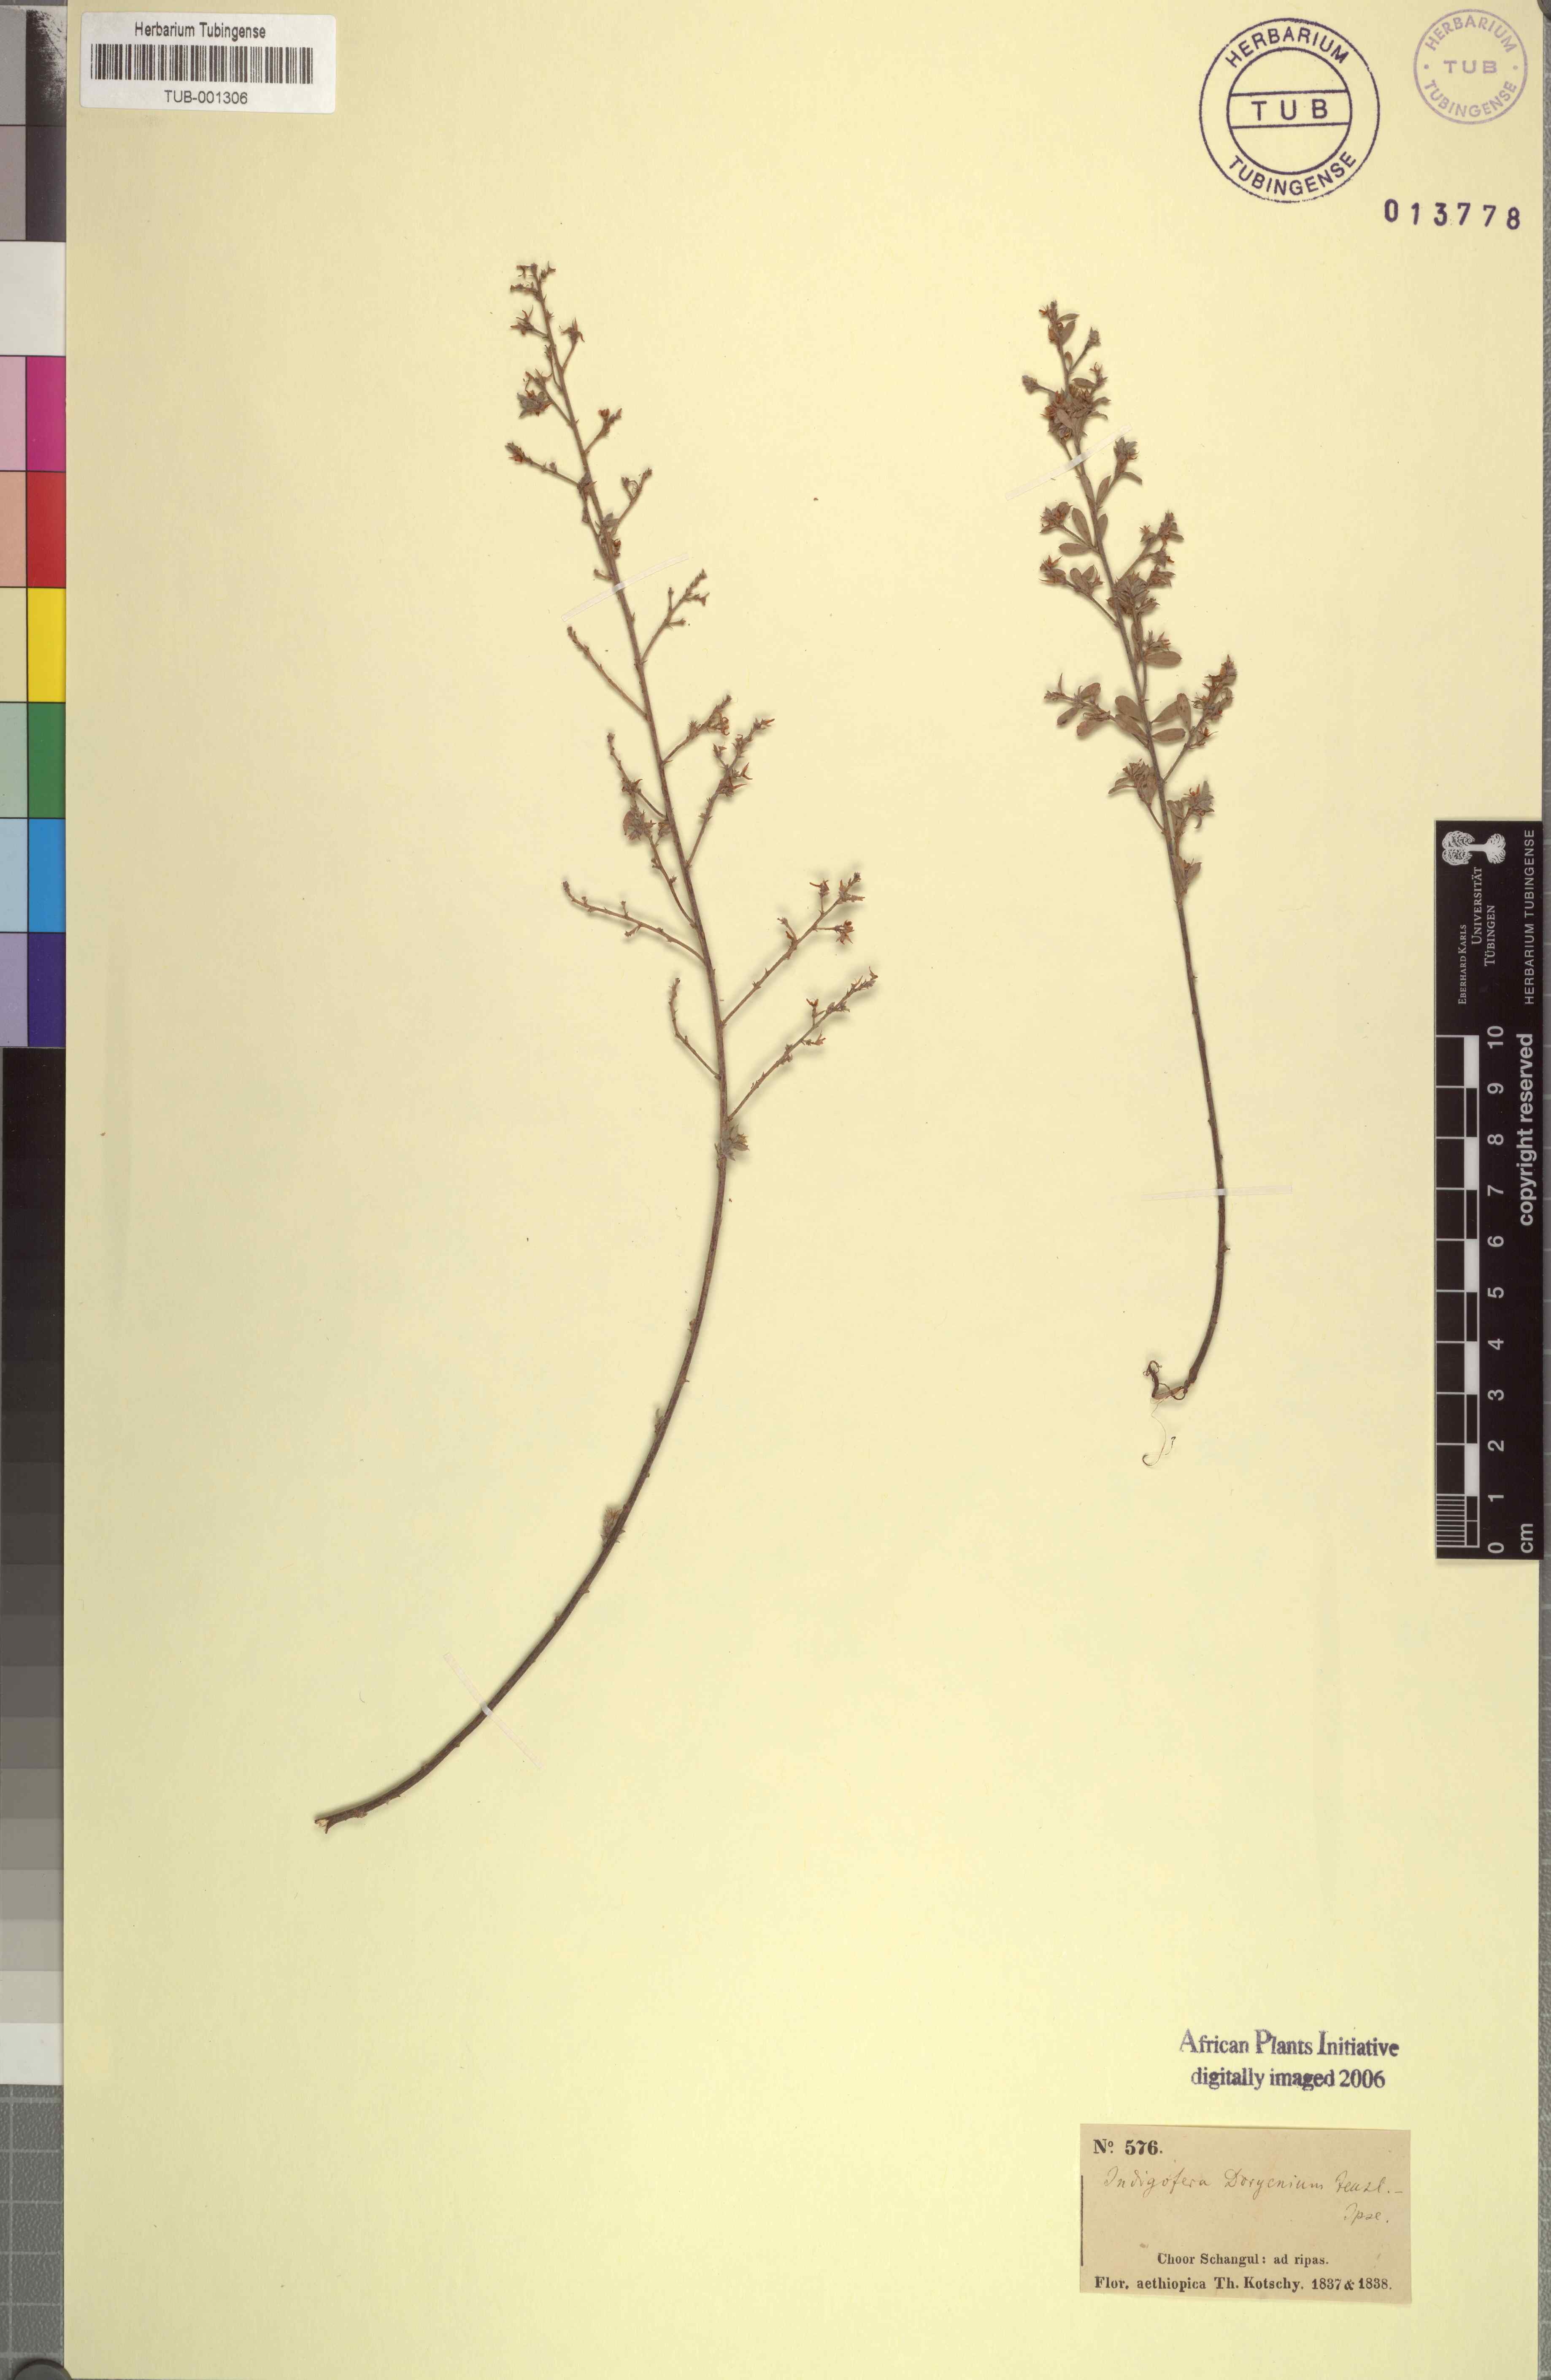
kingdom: Plantae
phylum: Tracheophyta
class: Magnoliopsida
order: Fabales
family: Fabaceae
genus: Indigofera
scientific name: Indigofera pulchra
